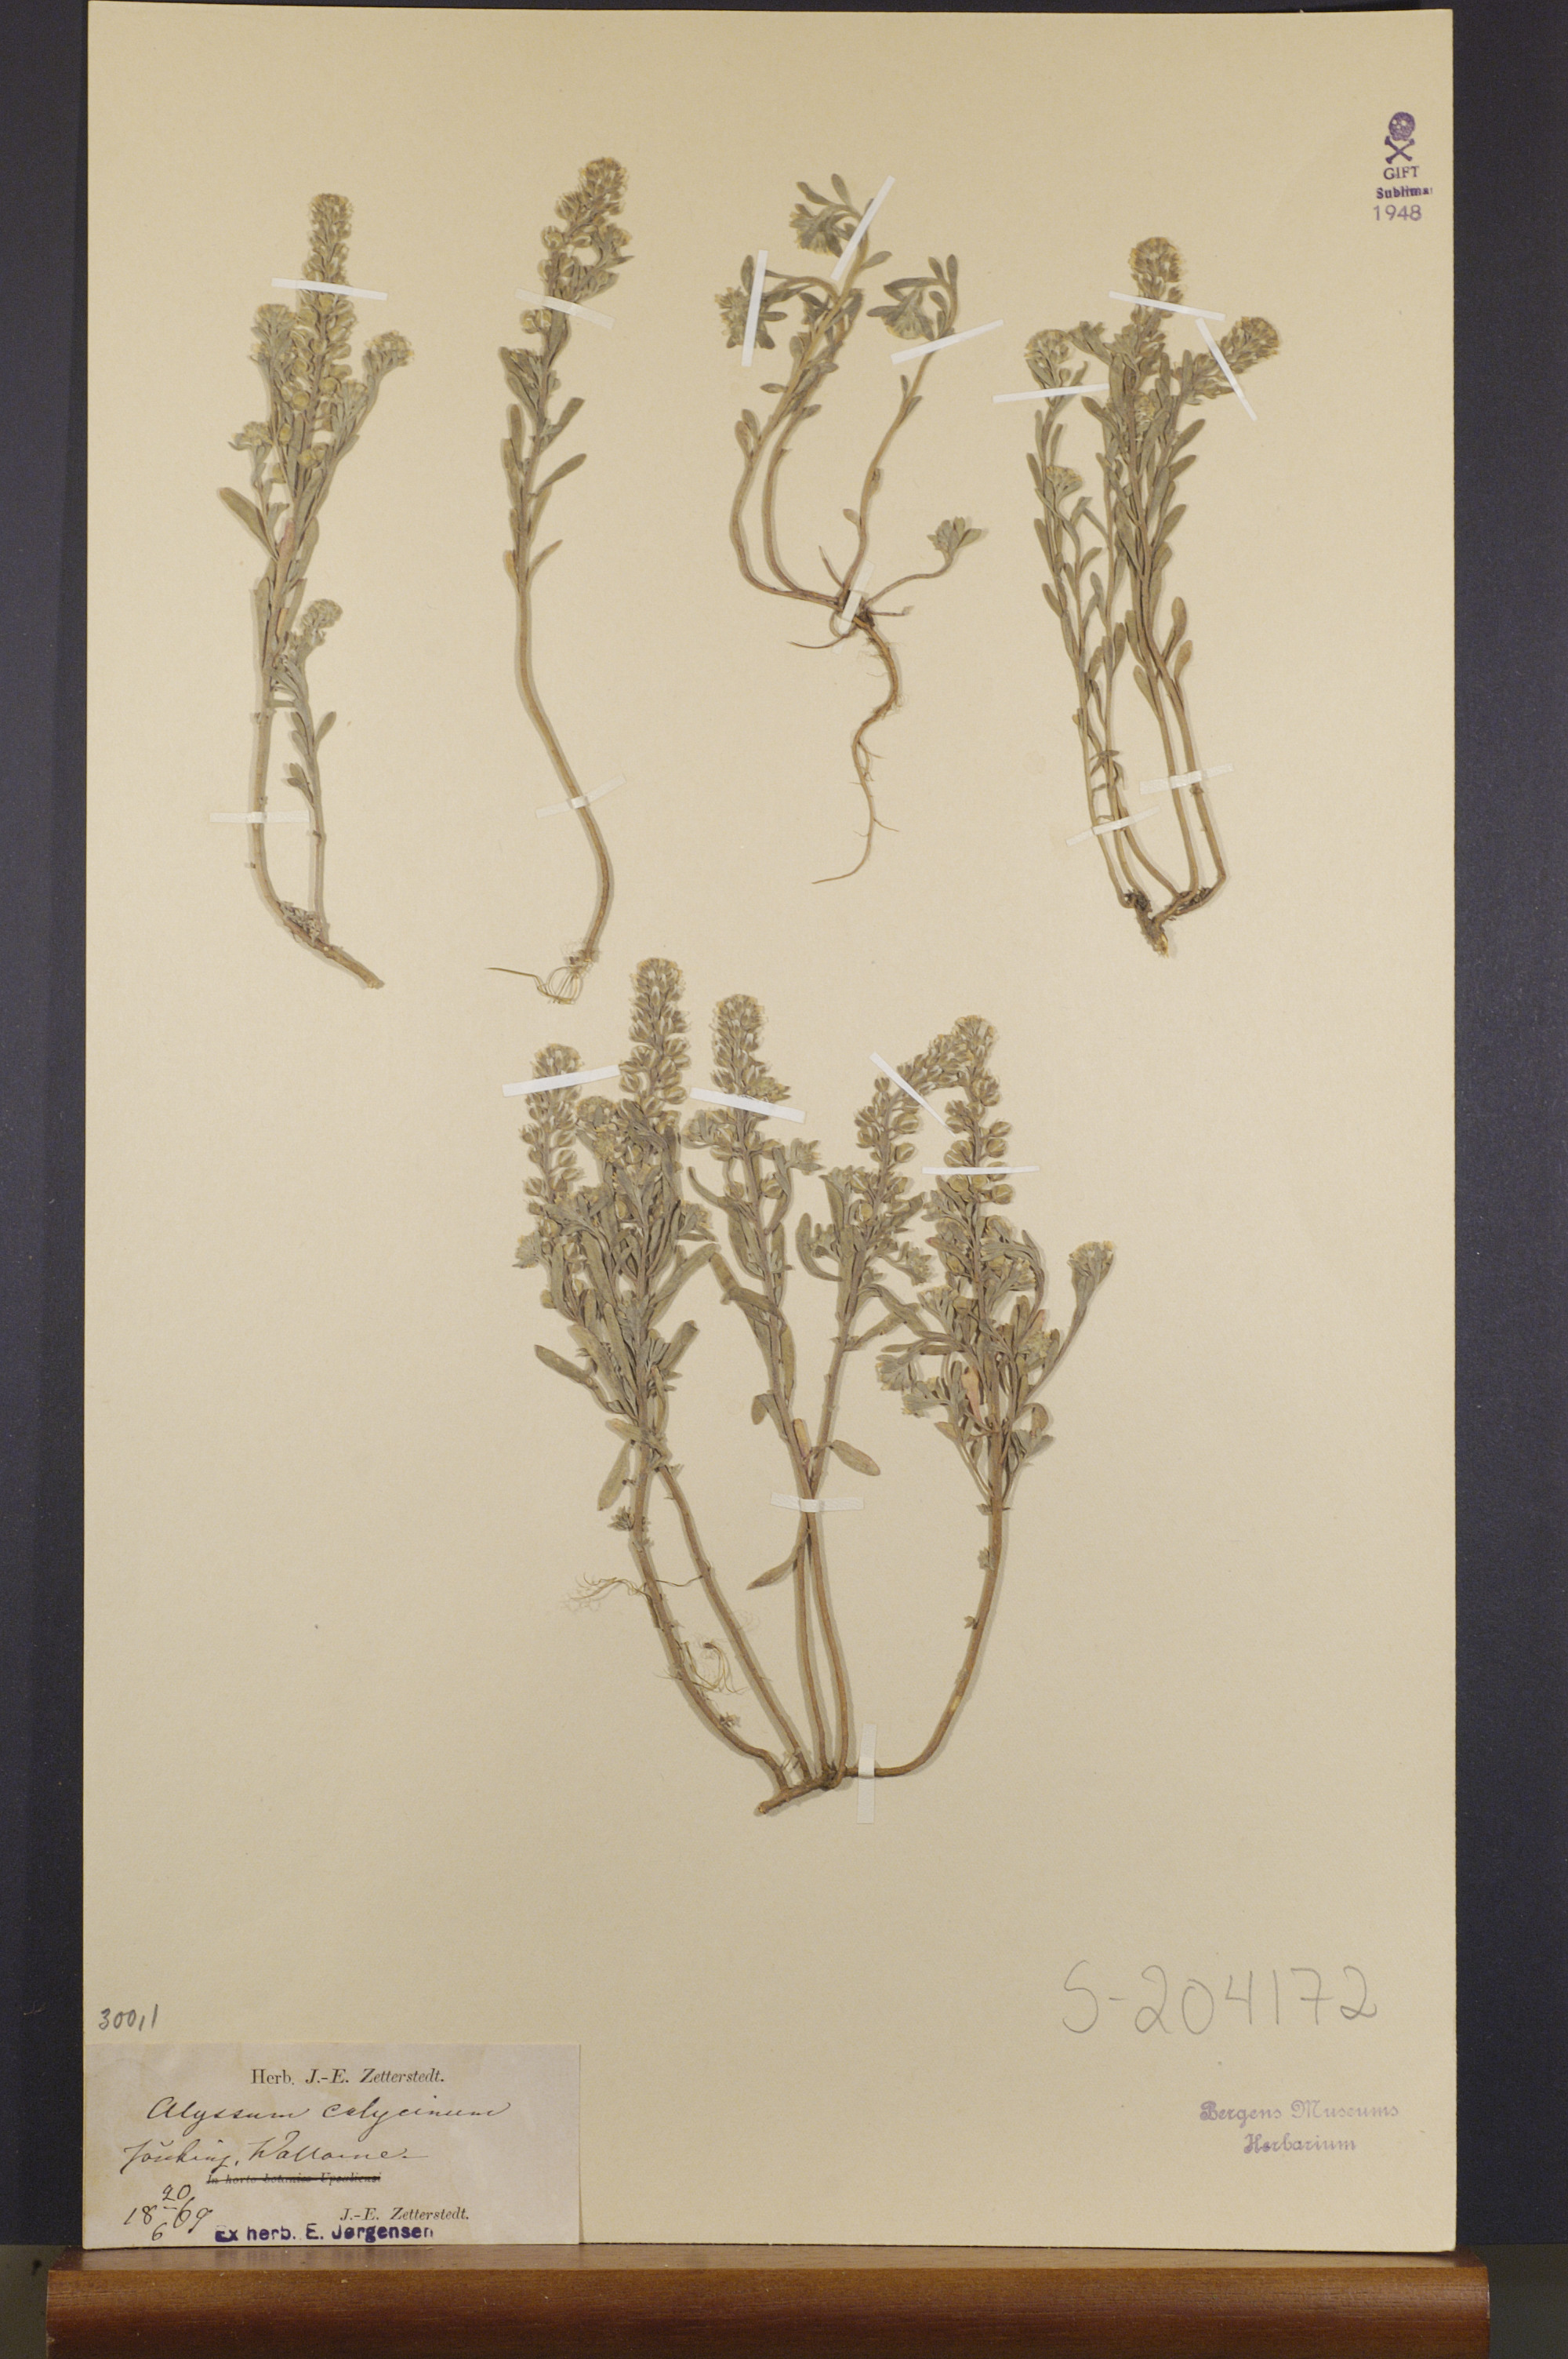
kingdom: Plantae
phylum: Tracheophyta
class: Magnoliopsida
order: Brassicales
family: Brassicaceae
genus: Alyssum
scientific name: Alyssum alyssoides
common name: Small alison
